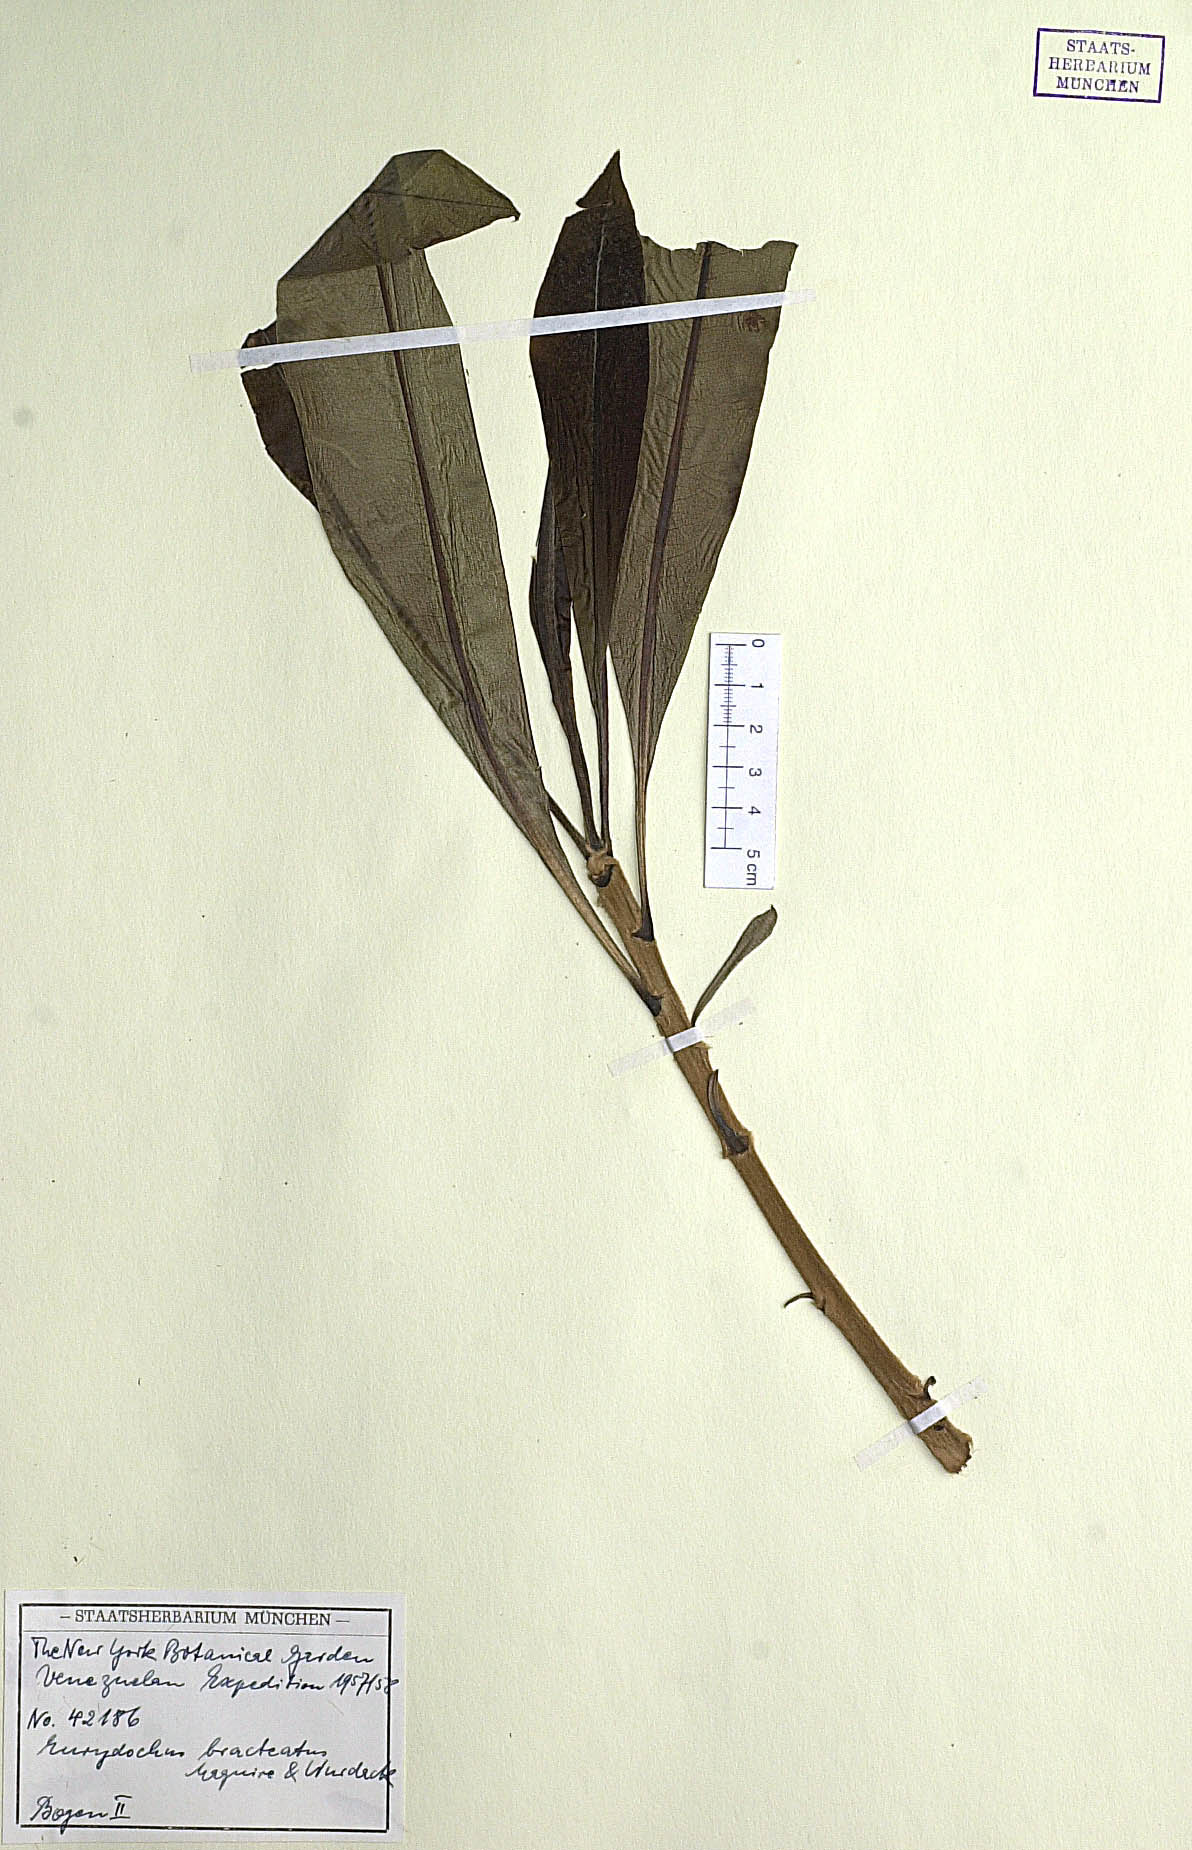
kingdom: Plantae
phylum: Tracheophyta
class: Magnoliopsida
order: Asterales
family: Asteraceae
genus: Eurydochus
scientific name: Eurydochus bracteatus
